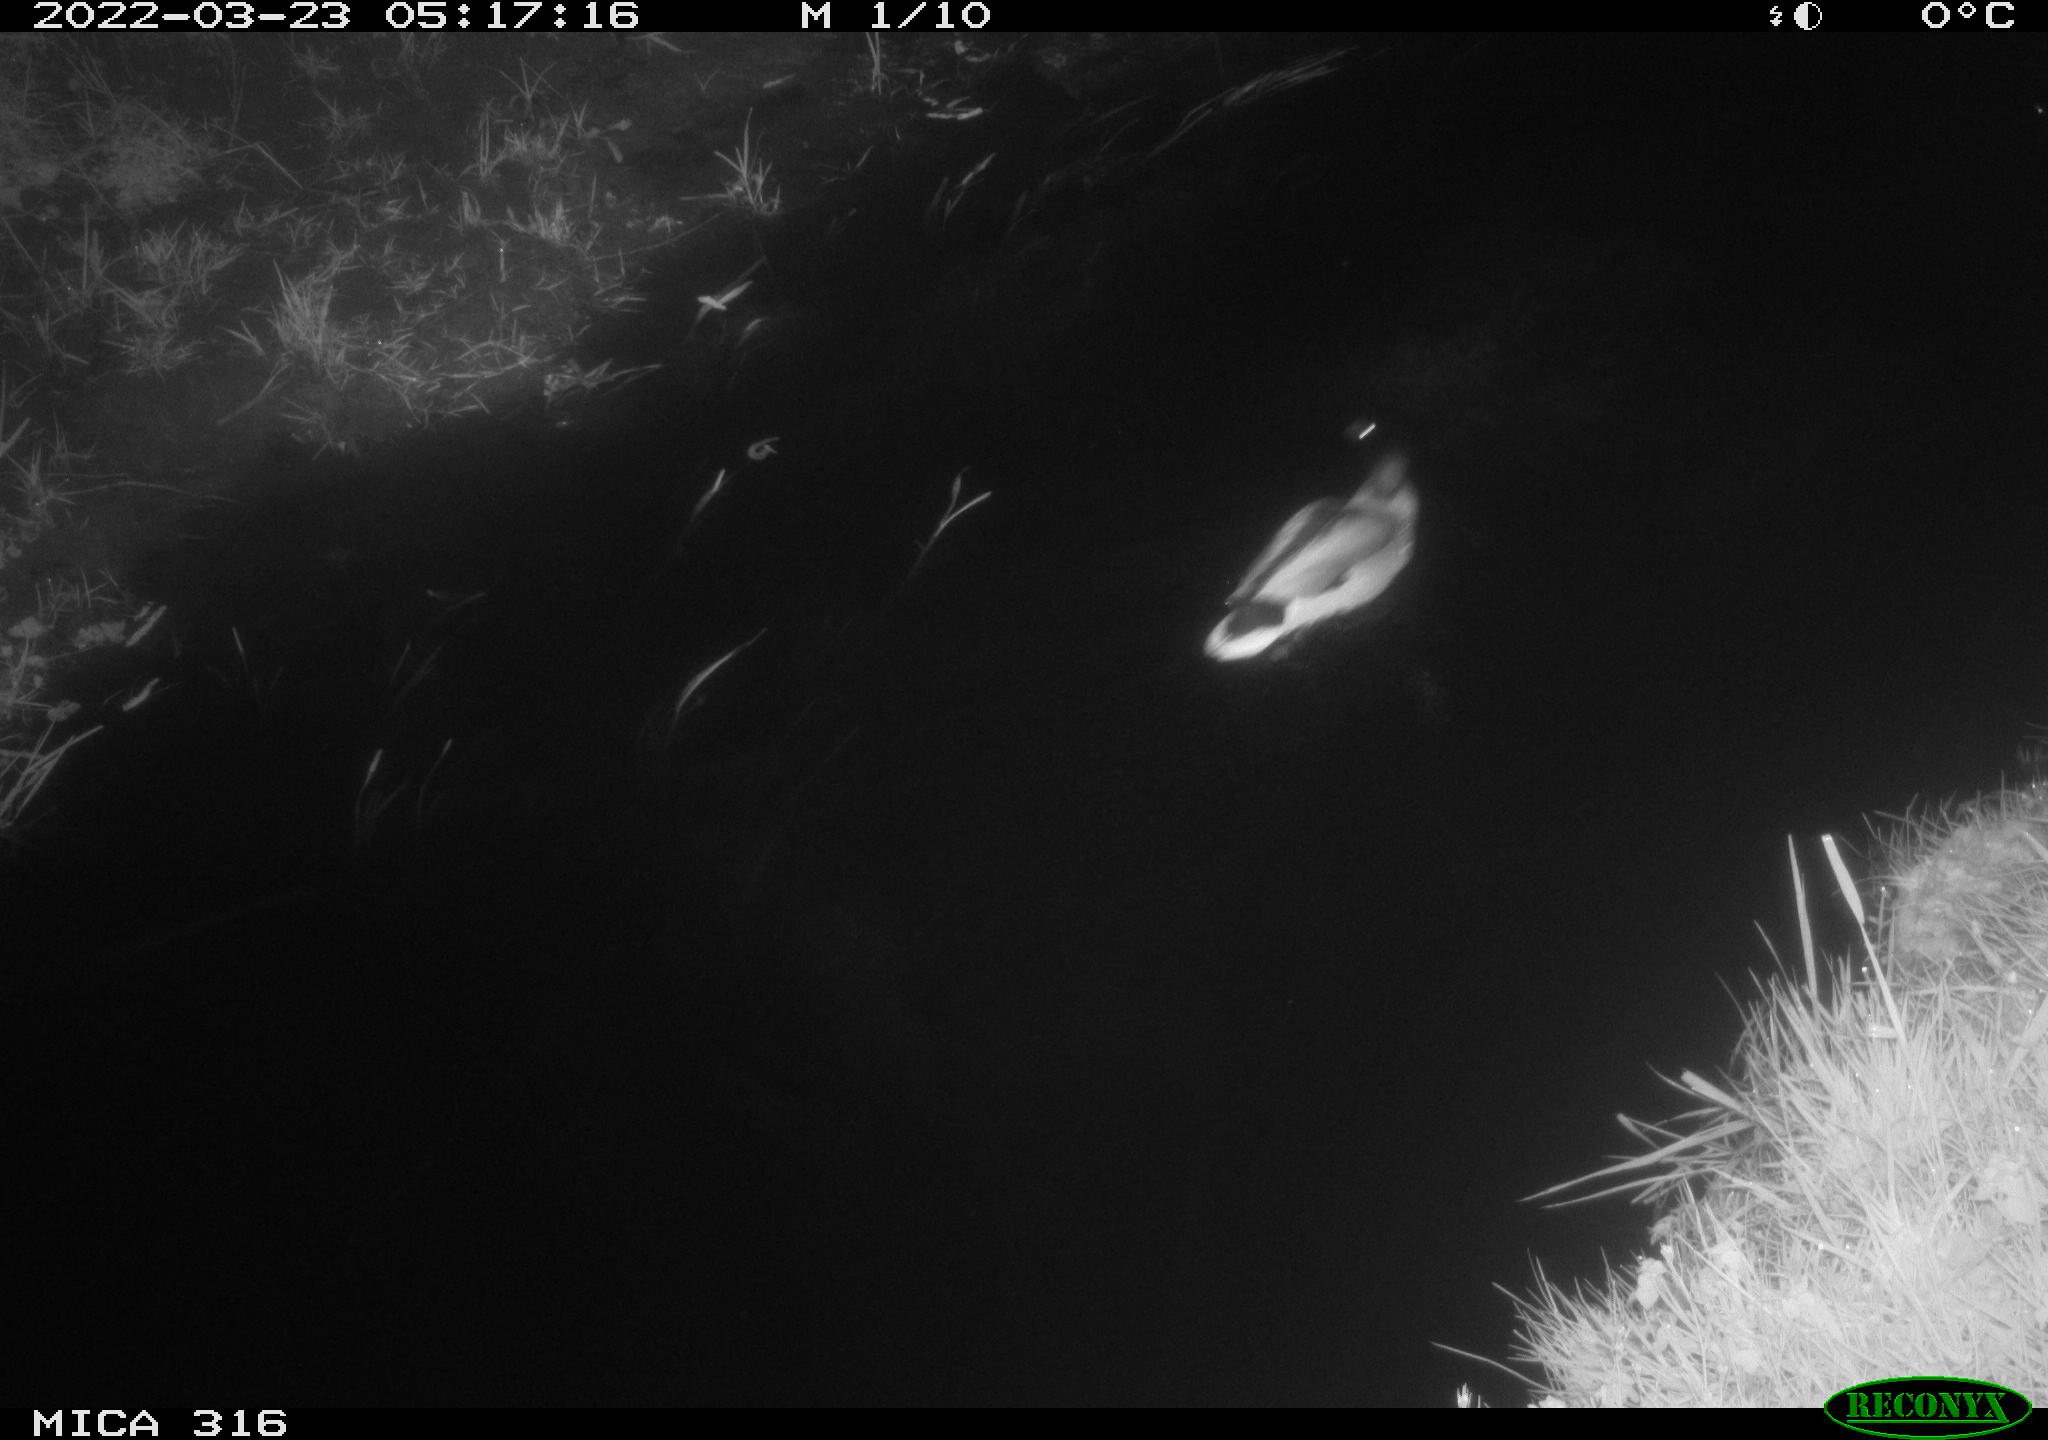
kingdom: Animalia
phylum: Chordata
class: Aves
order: Anseriformes
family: Anatidae
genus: Anas
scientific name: Anas platyrhynchos
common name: Mallard
